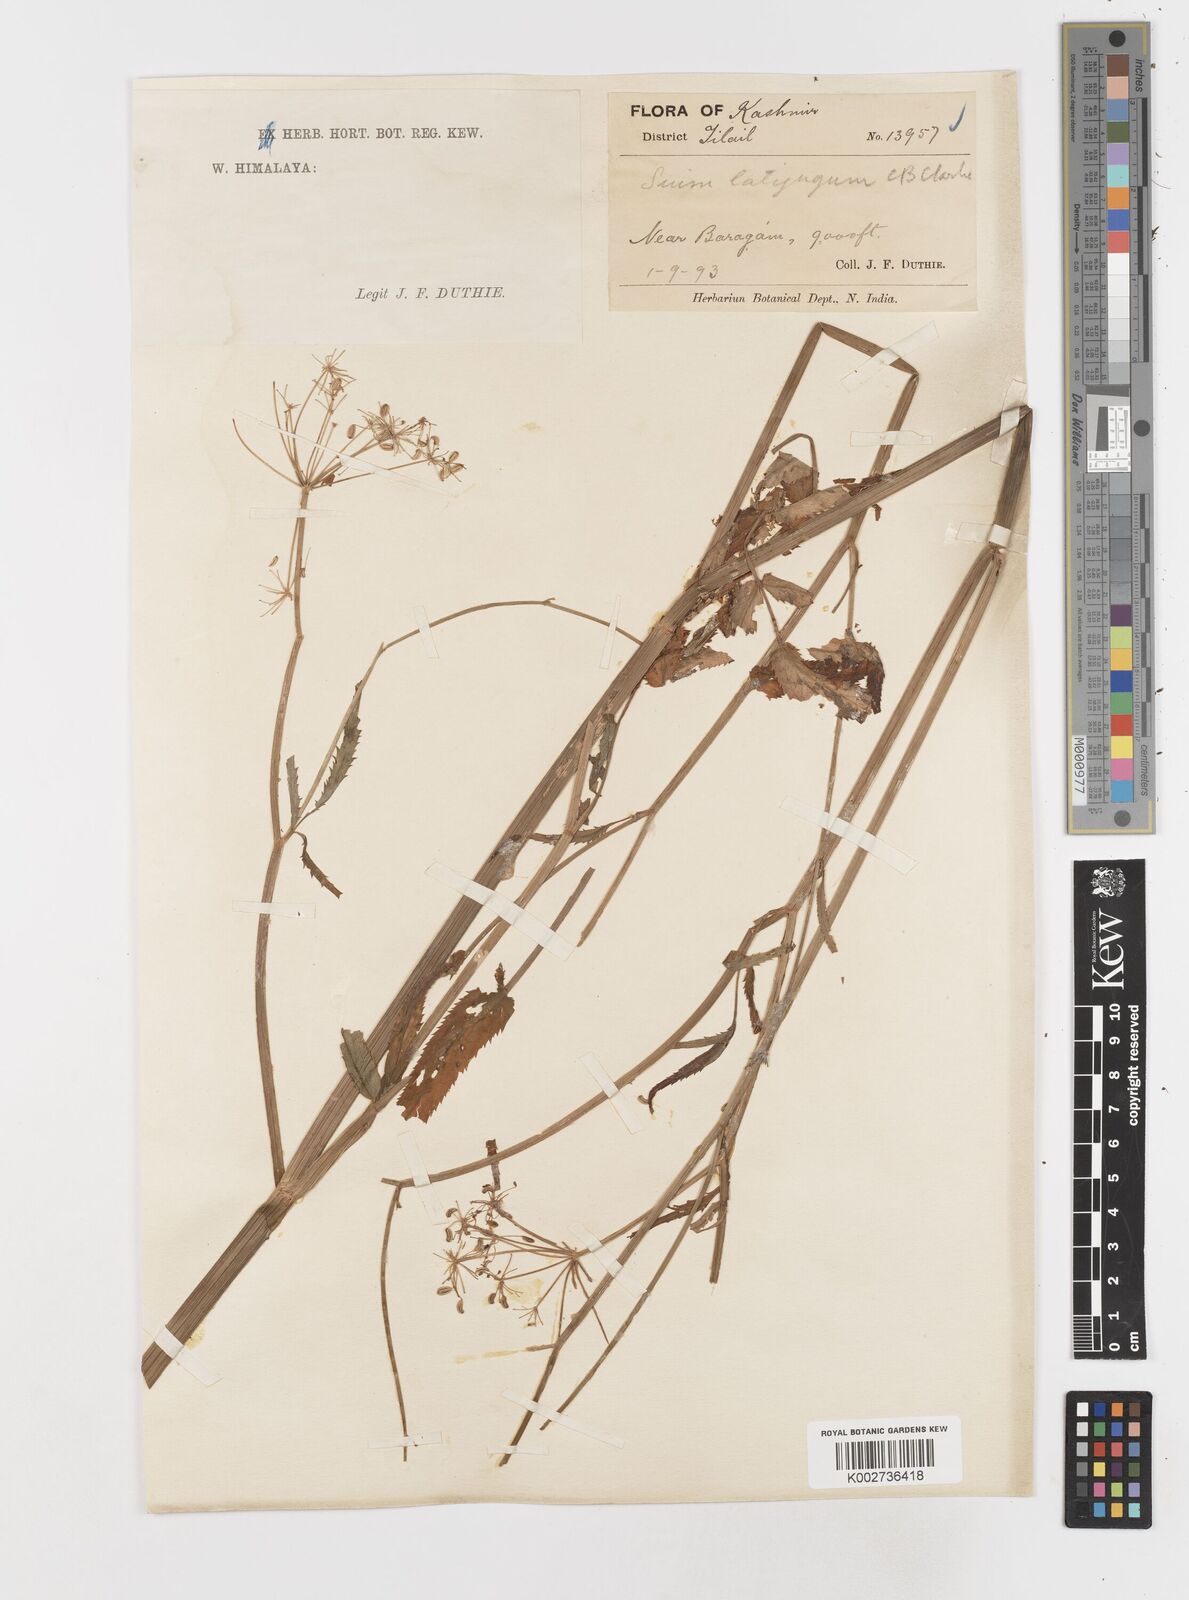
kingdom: Plantae
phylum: Tracheophyta
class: Magnoliopsida
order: Apiales
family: Apiaceae
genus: Sium
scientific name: Sium sisarum
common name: Skirret
